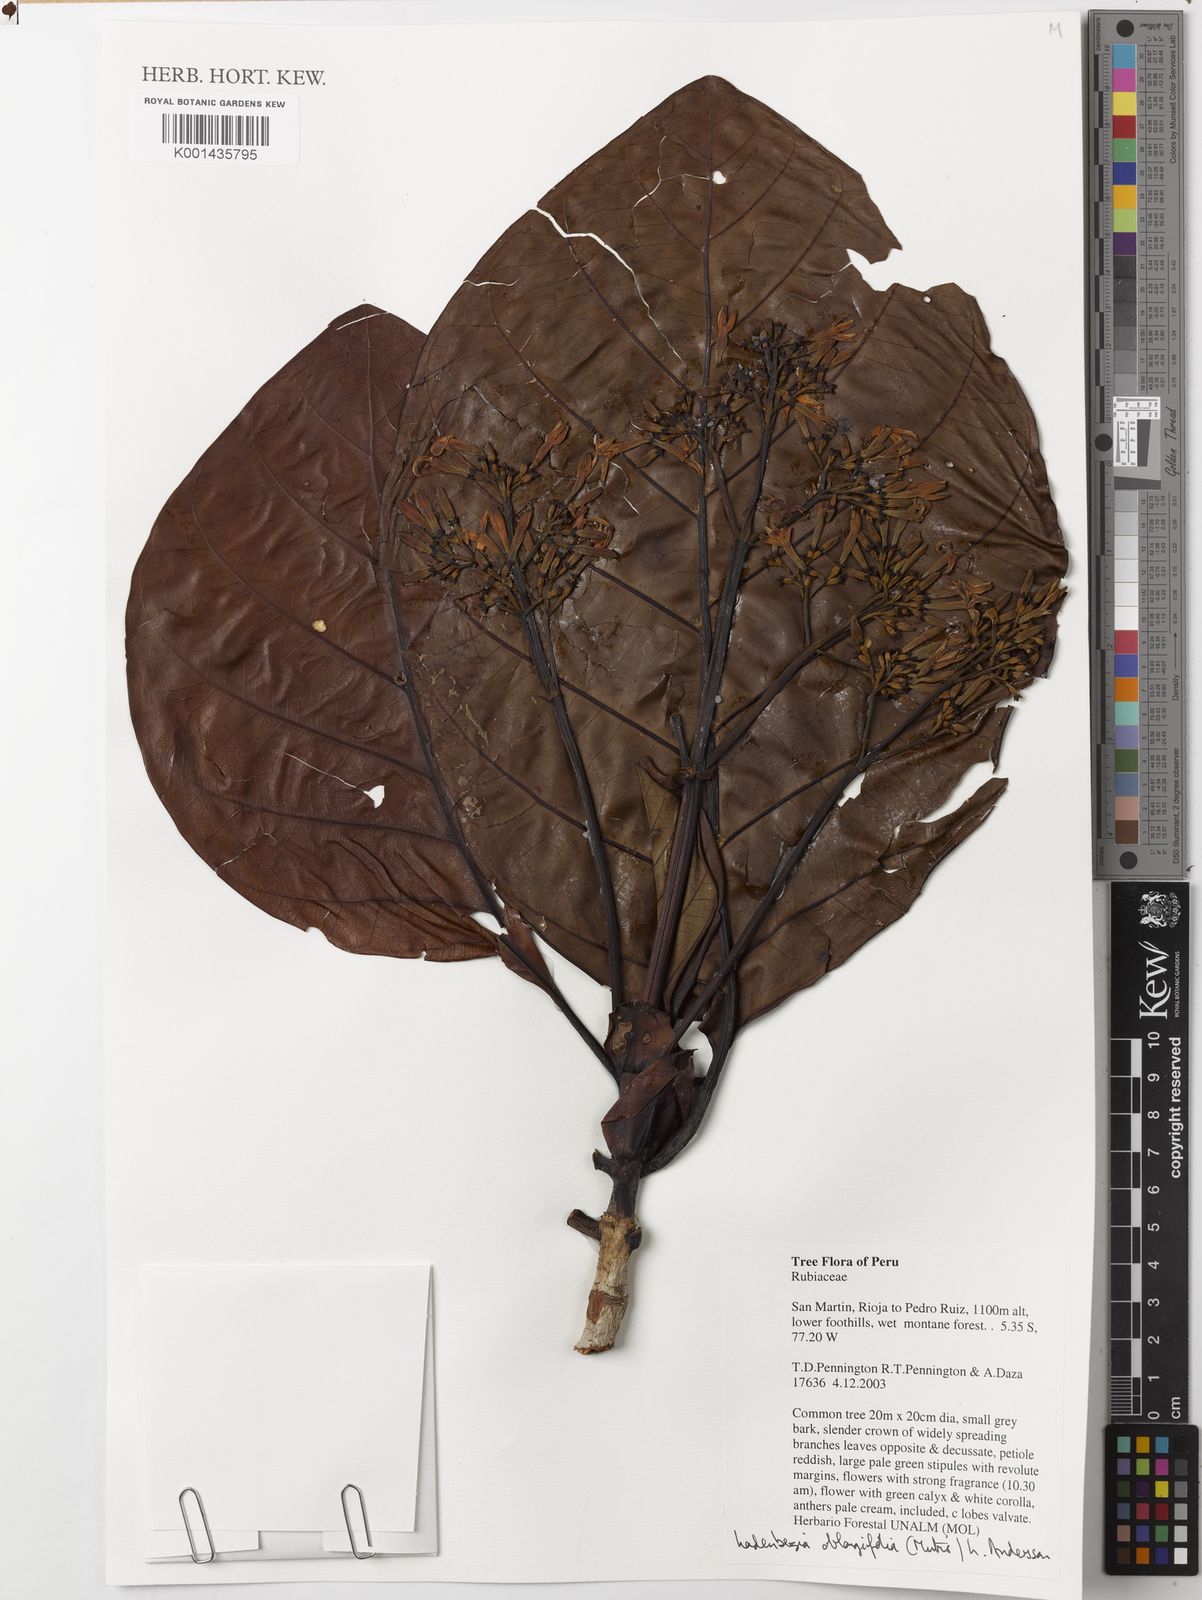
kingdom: Plantae
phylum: Tracheophyta
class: Magnoliopsida
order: Gentianales
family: Rubiaceae
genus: Ladenbergia
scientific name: Ladenbergia oblongifolia
